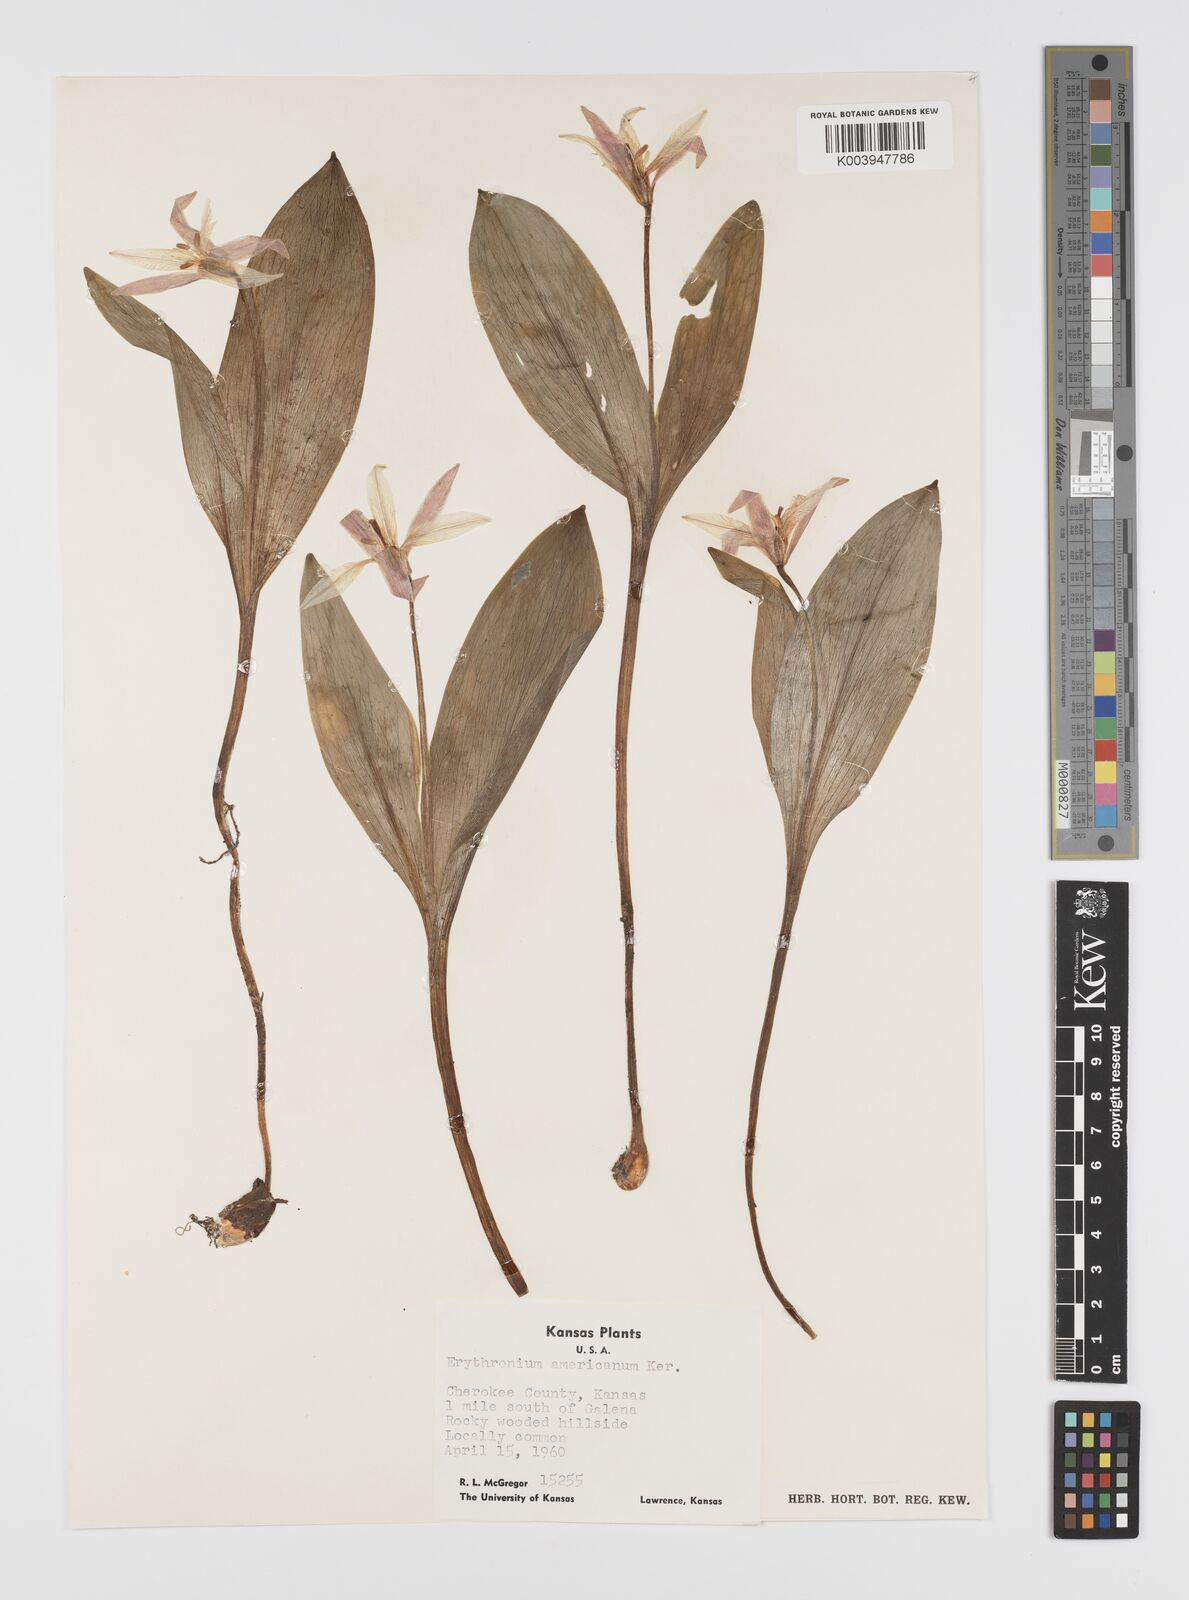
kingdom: Plantae
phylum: Tracheophyta
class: Liliopsida
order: Liliales
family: Liliaceae
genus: Erythronium
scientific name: Erythronium americanum
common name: Yellow adder's-tongue
